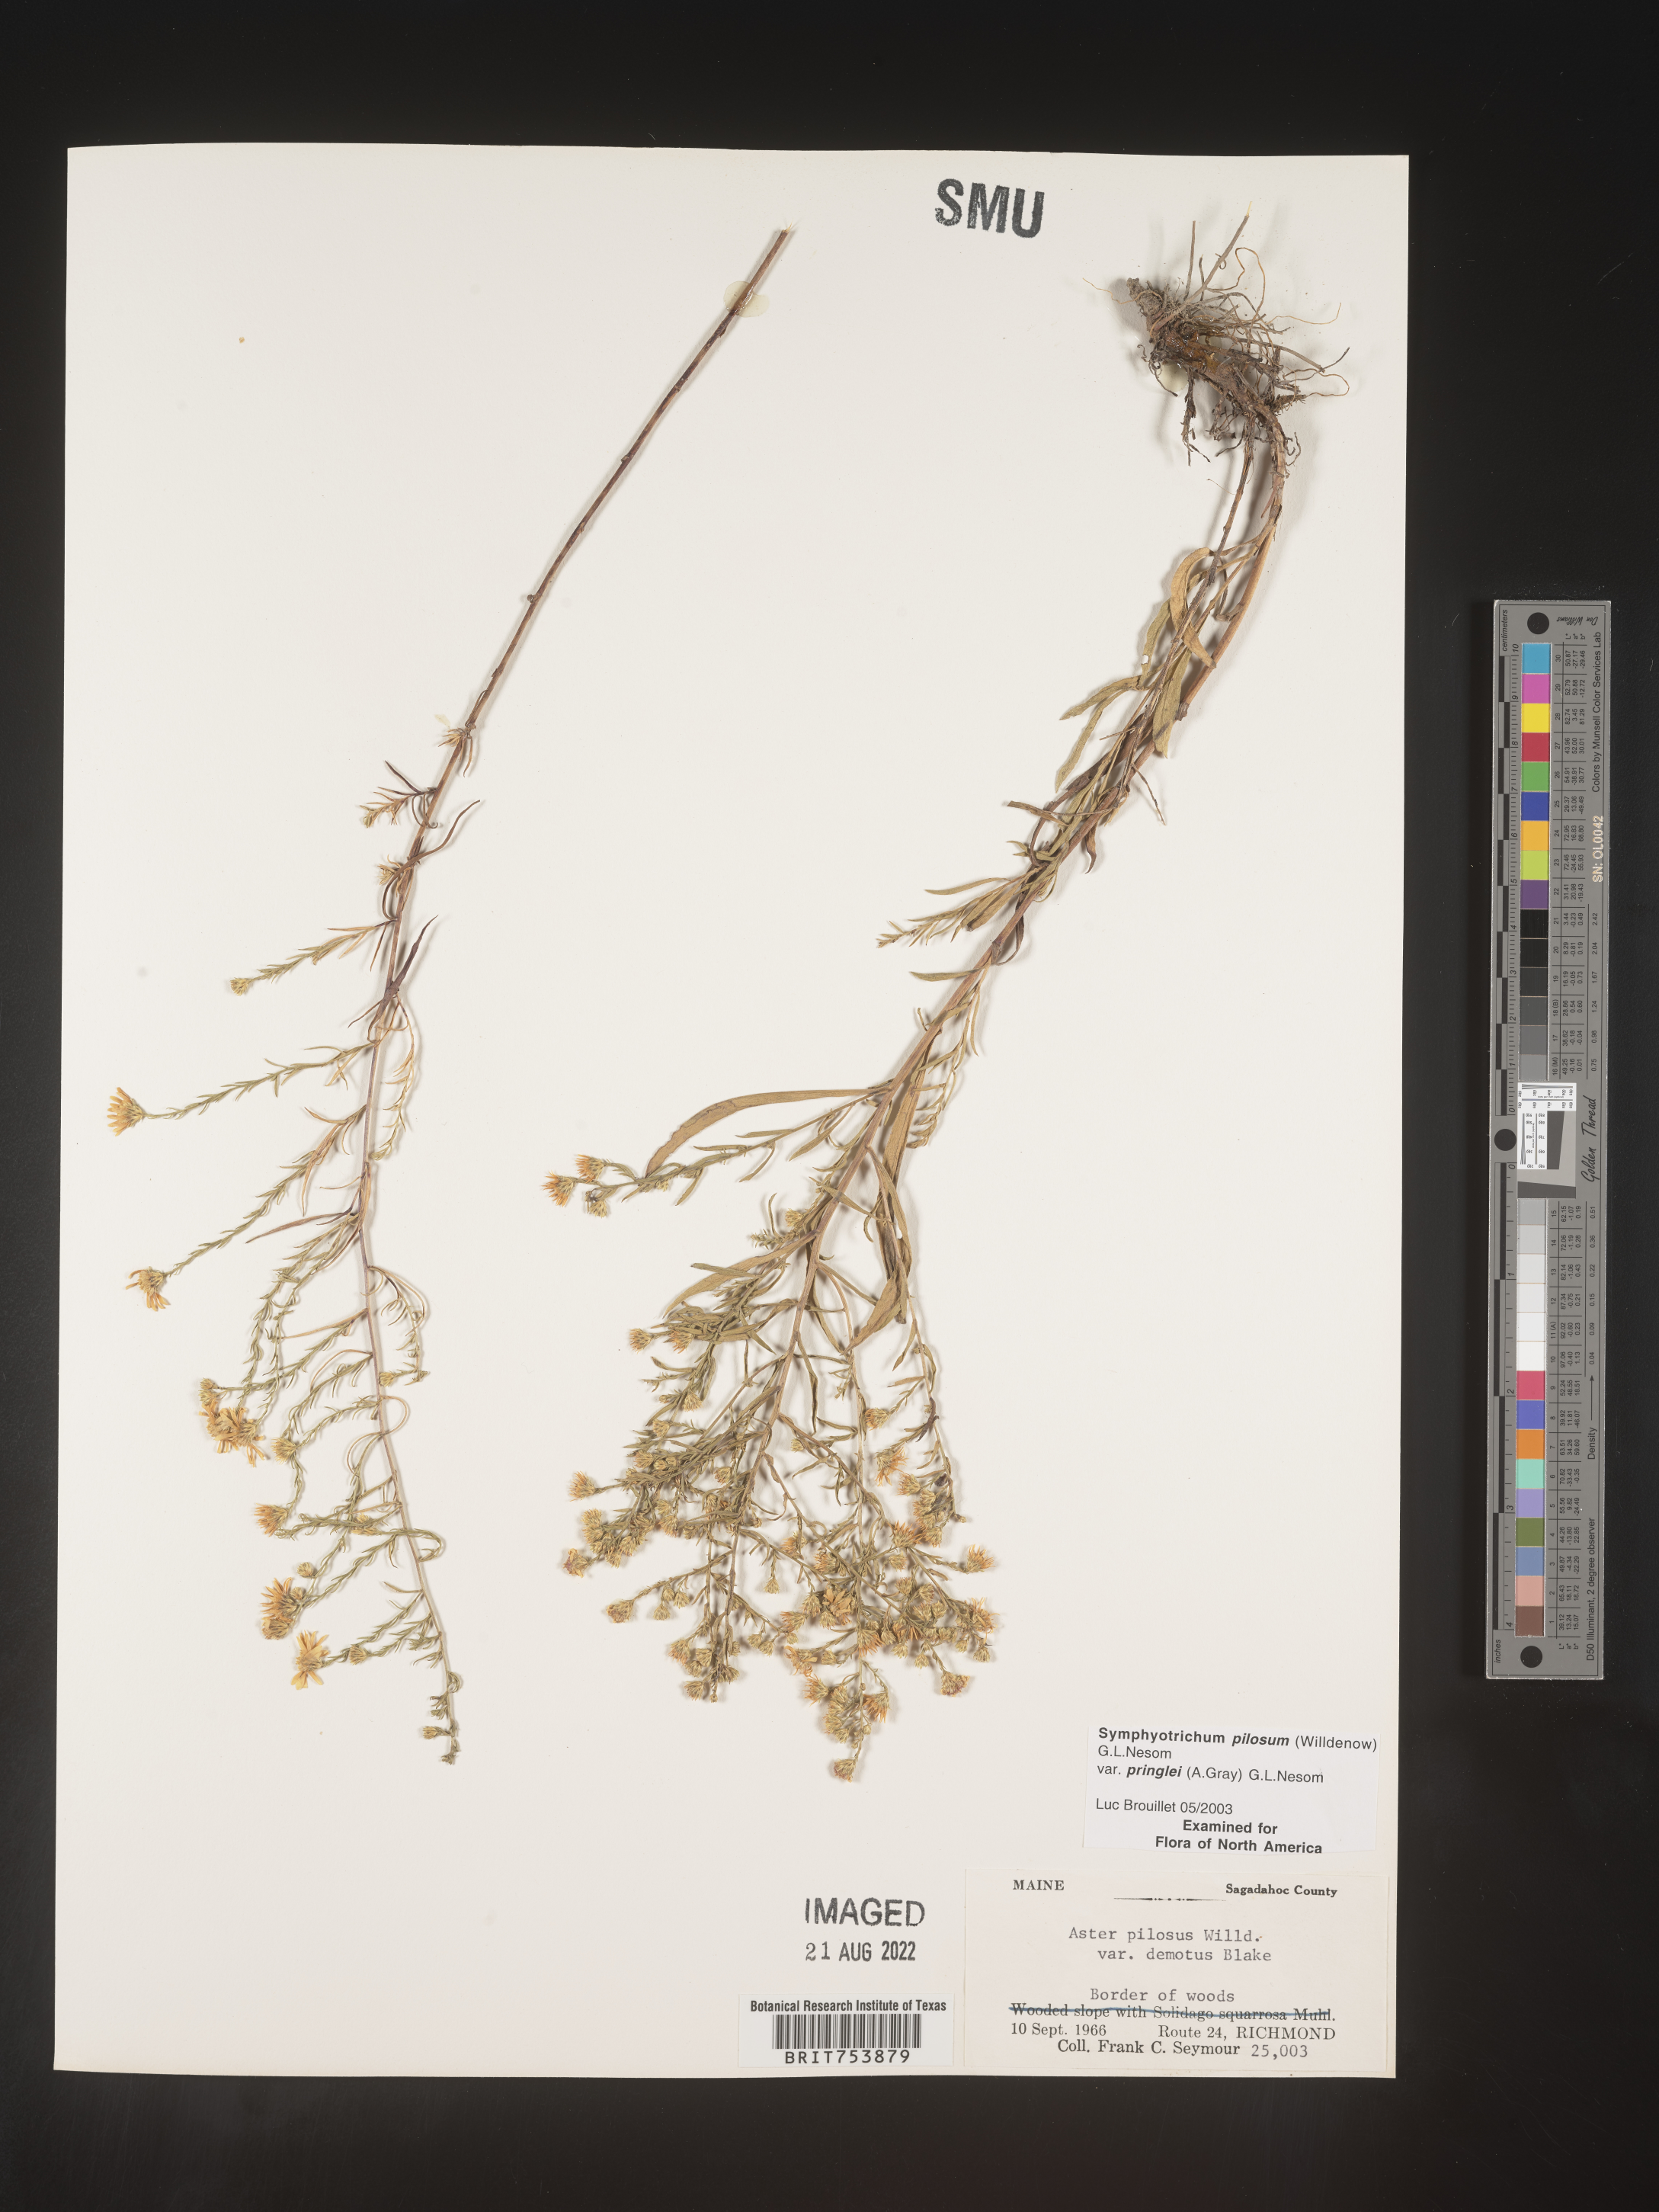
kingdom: Plantae
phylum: Tracheophyta
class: Magnoliopsida
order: Asterales
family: Asteraceae
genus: Symphyotrichum
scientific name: Symphyotrichum pilosum
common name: Awl aster
